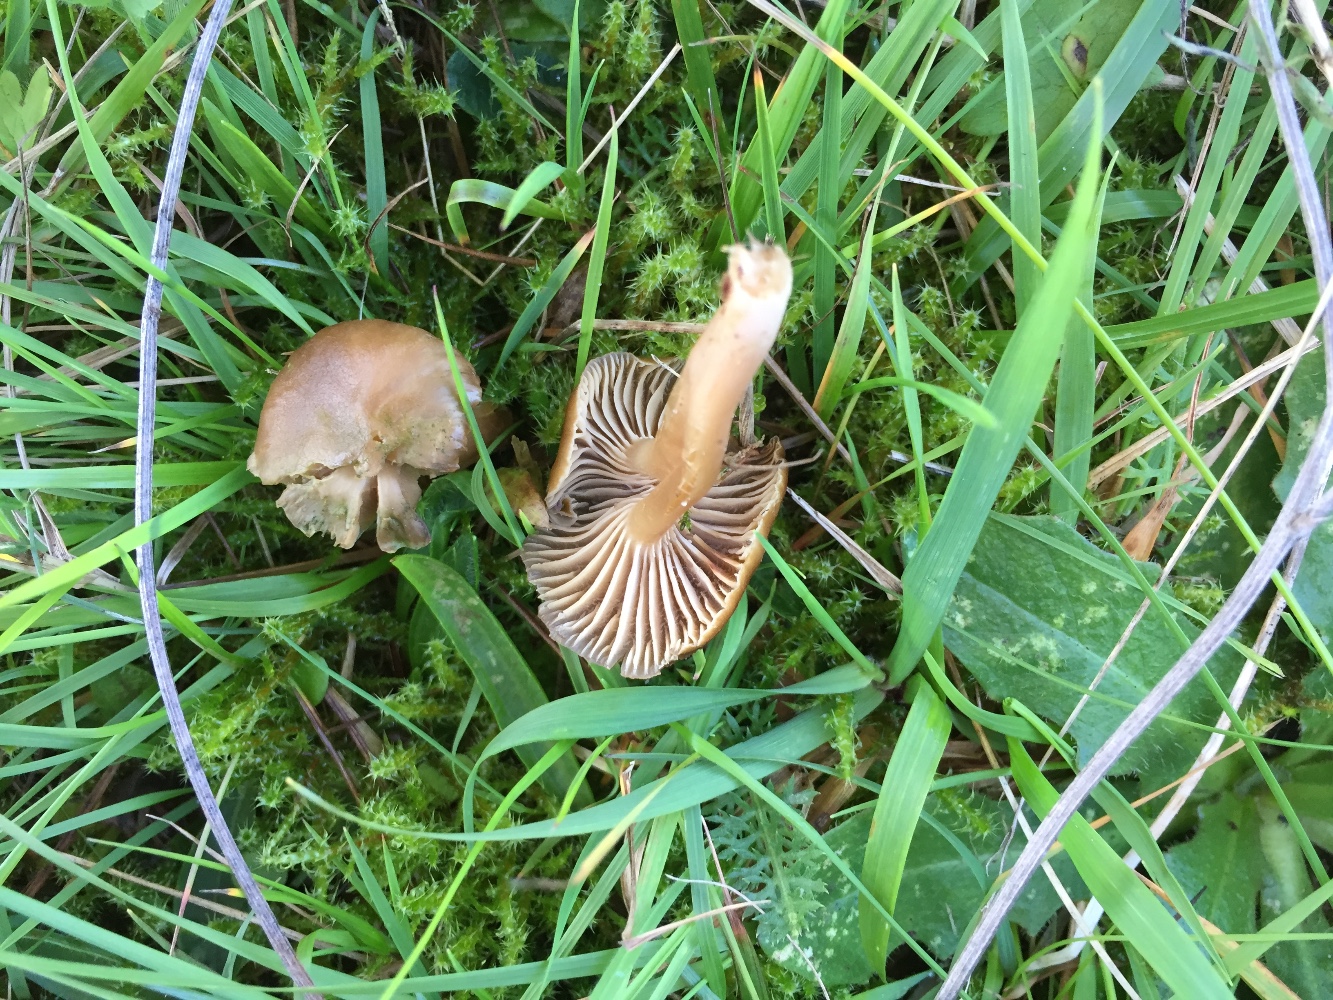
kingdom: Fungi
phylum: Basidiomycota
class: Agaricomycetes
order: Agaricales
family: Clavariaceae
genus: Camarophyllopsis
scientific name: Camarophyllopsis schulzeri
